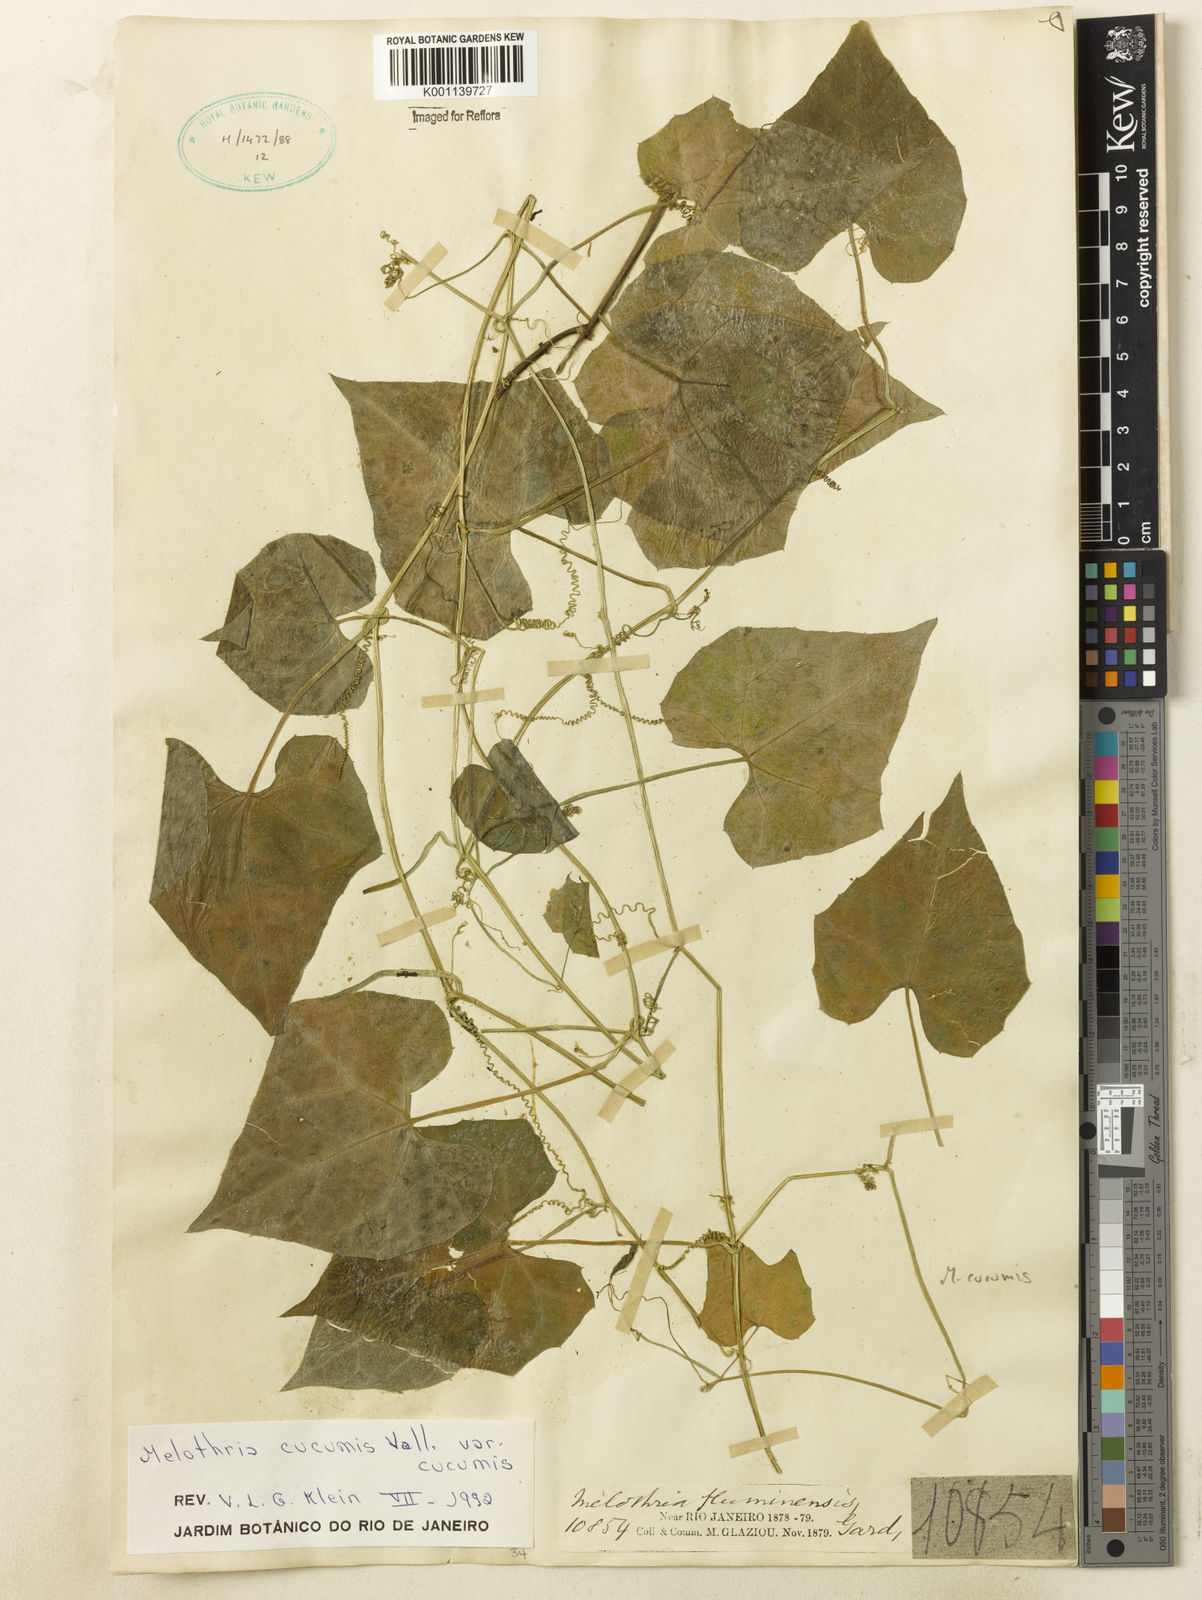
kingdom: Plantae
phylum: Tracheophyta
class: Magnoliopsida
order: Cucurbitales
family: Cucurbitaceae
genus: Melothria
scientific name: Melothria cucumis
